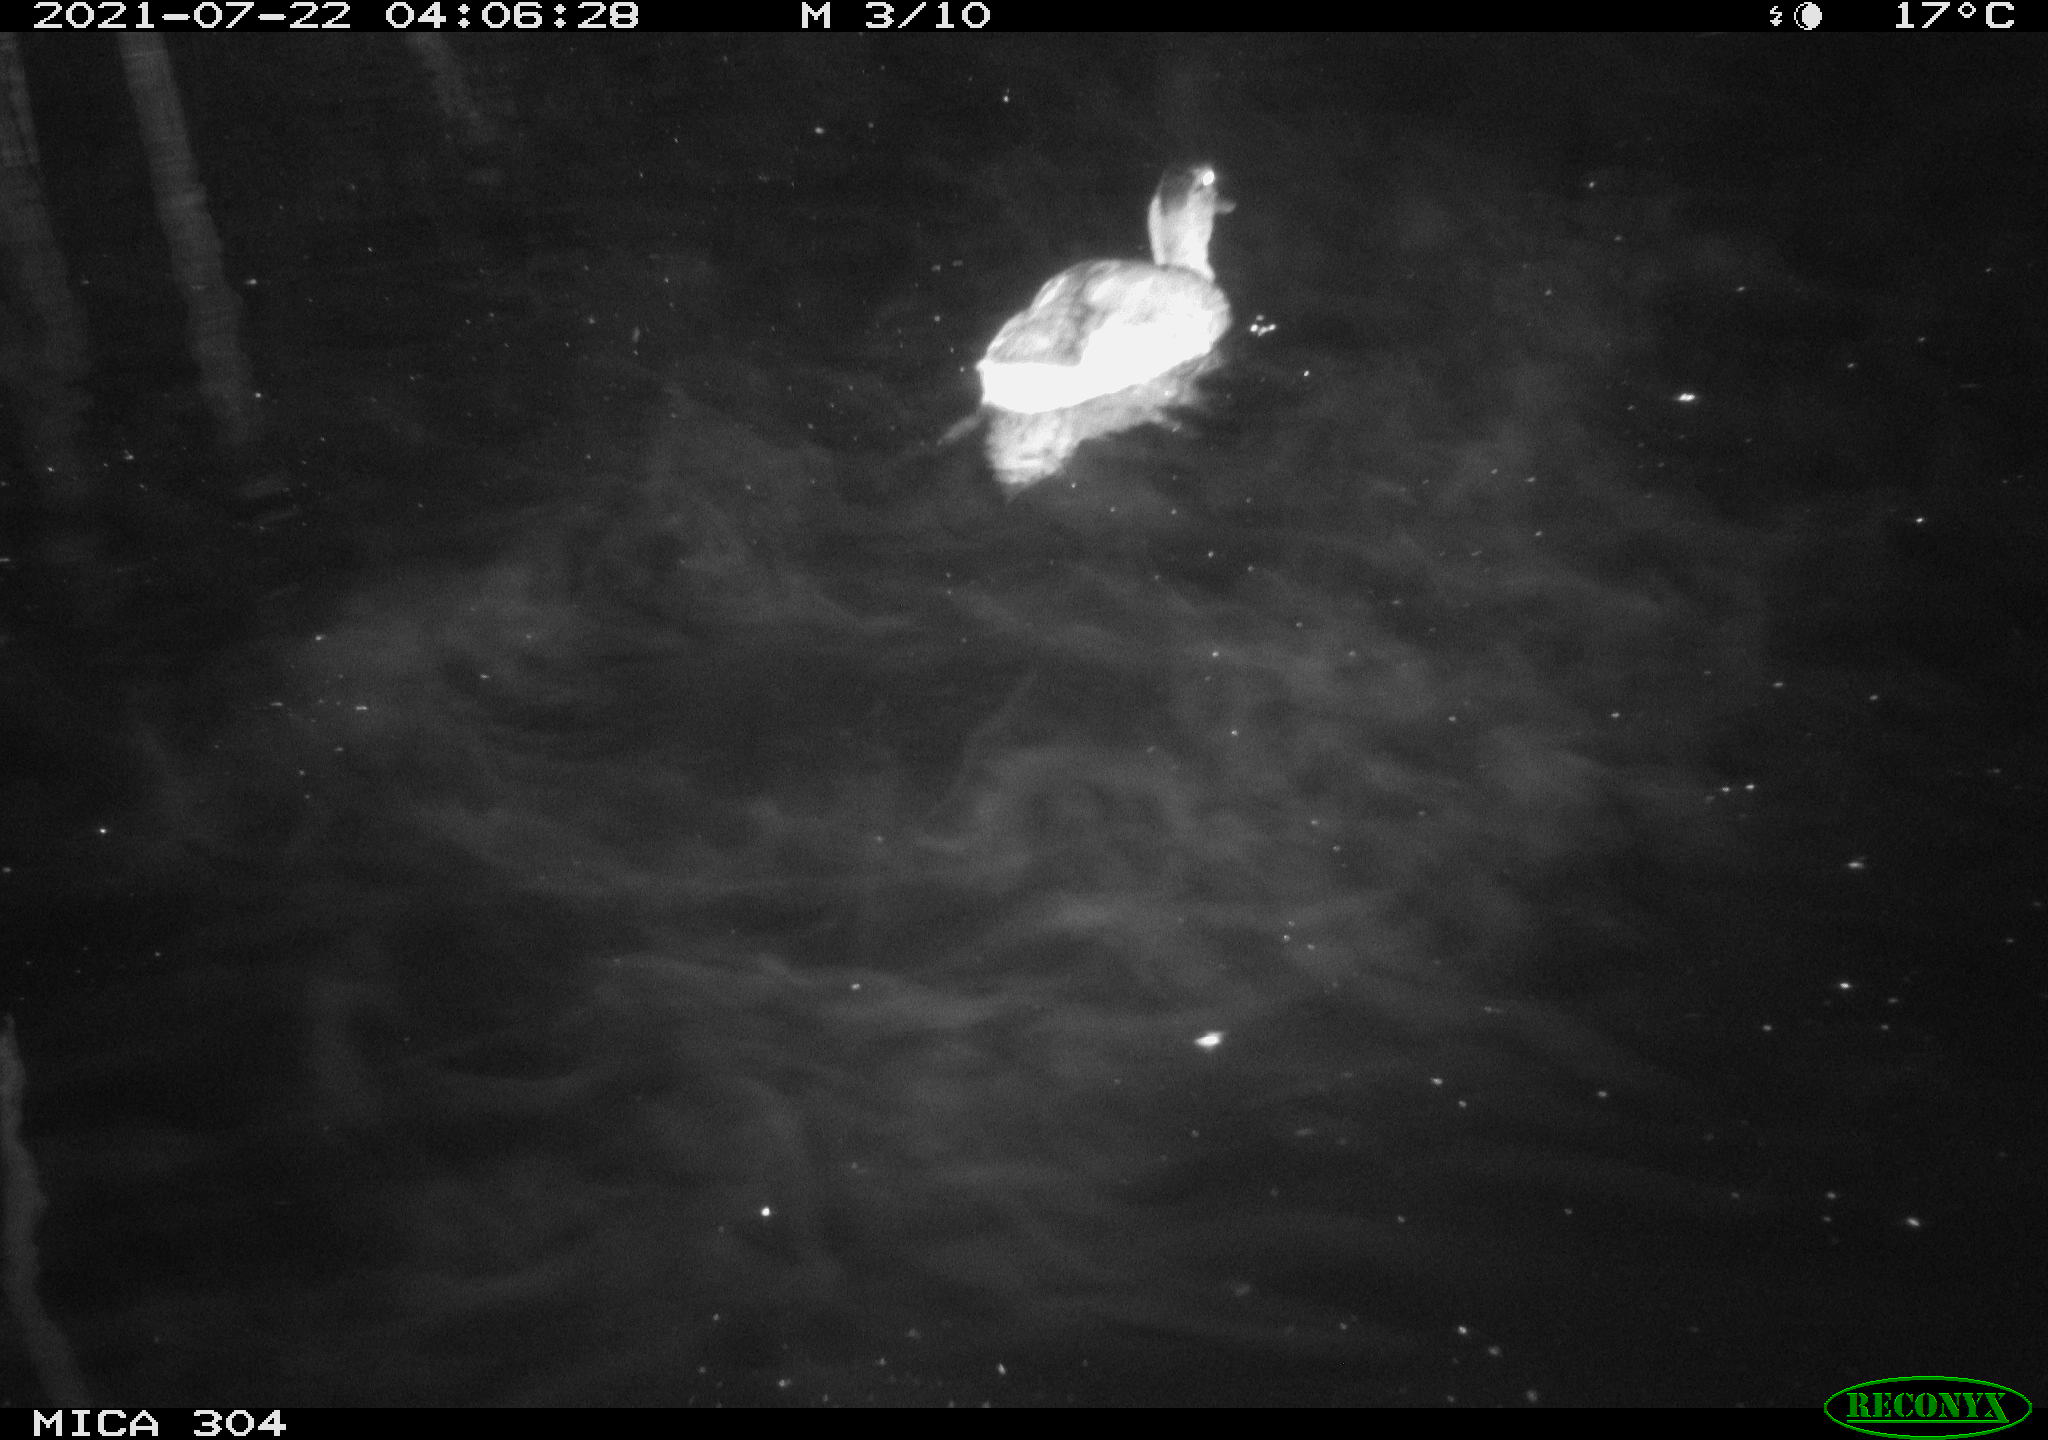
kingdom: Animalia
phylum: Chordata
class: Aves
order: Anseriformes
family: Anatidae
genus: Anas
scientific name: Anas platyrhynchos
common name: Mallard
